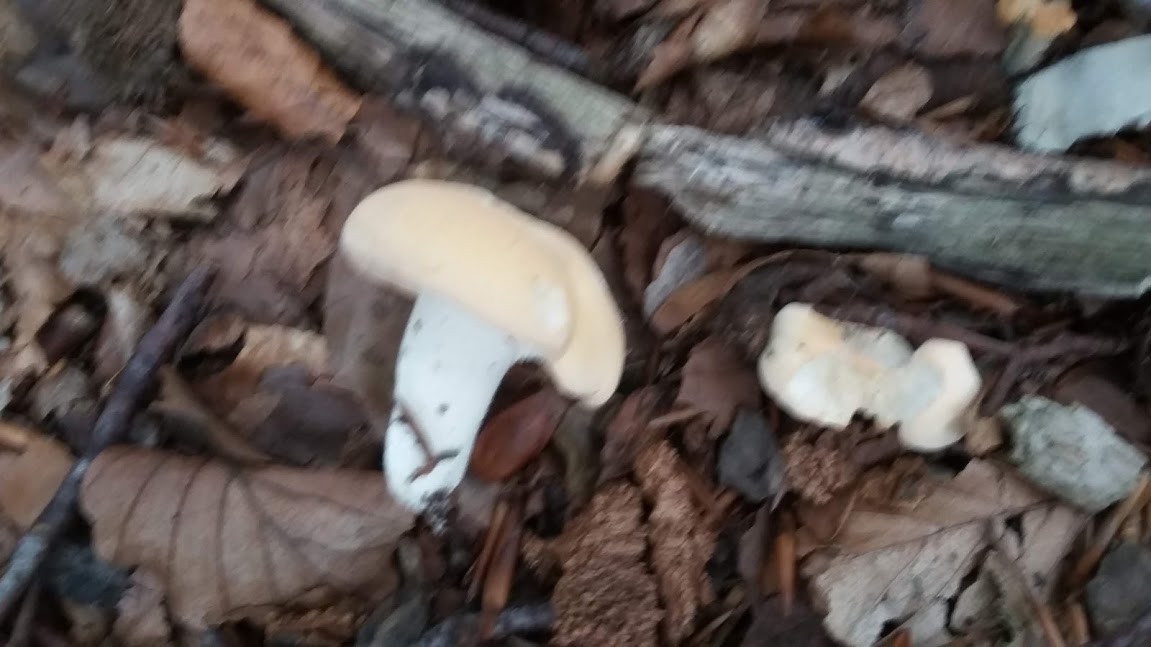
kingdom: Fungi
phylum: Basidiomycota
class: Agaricomycetes
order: Cantharellales
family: Hydnaceae
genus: Hydnum
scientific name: Hydnum
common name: pigsvamp
